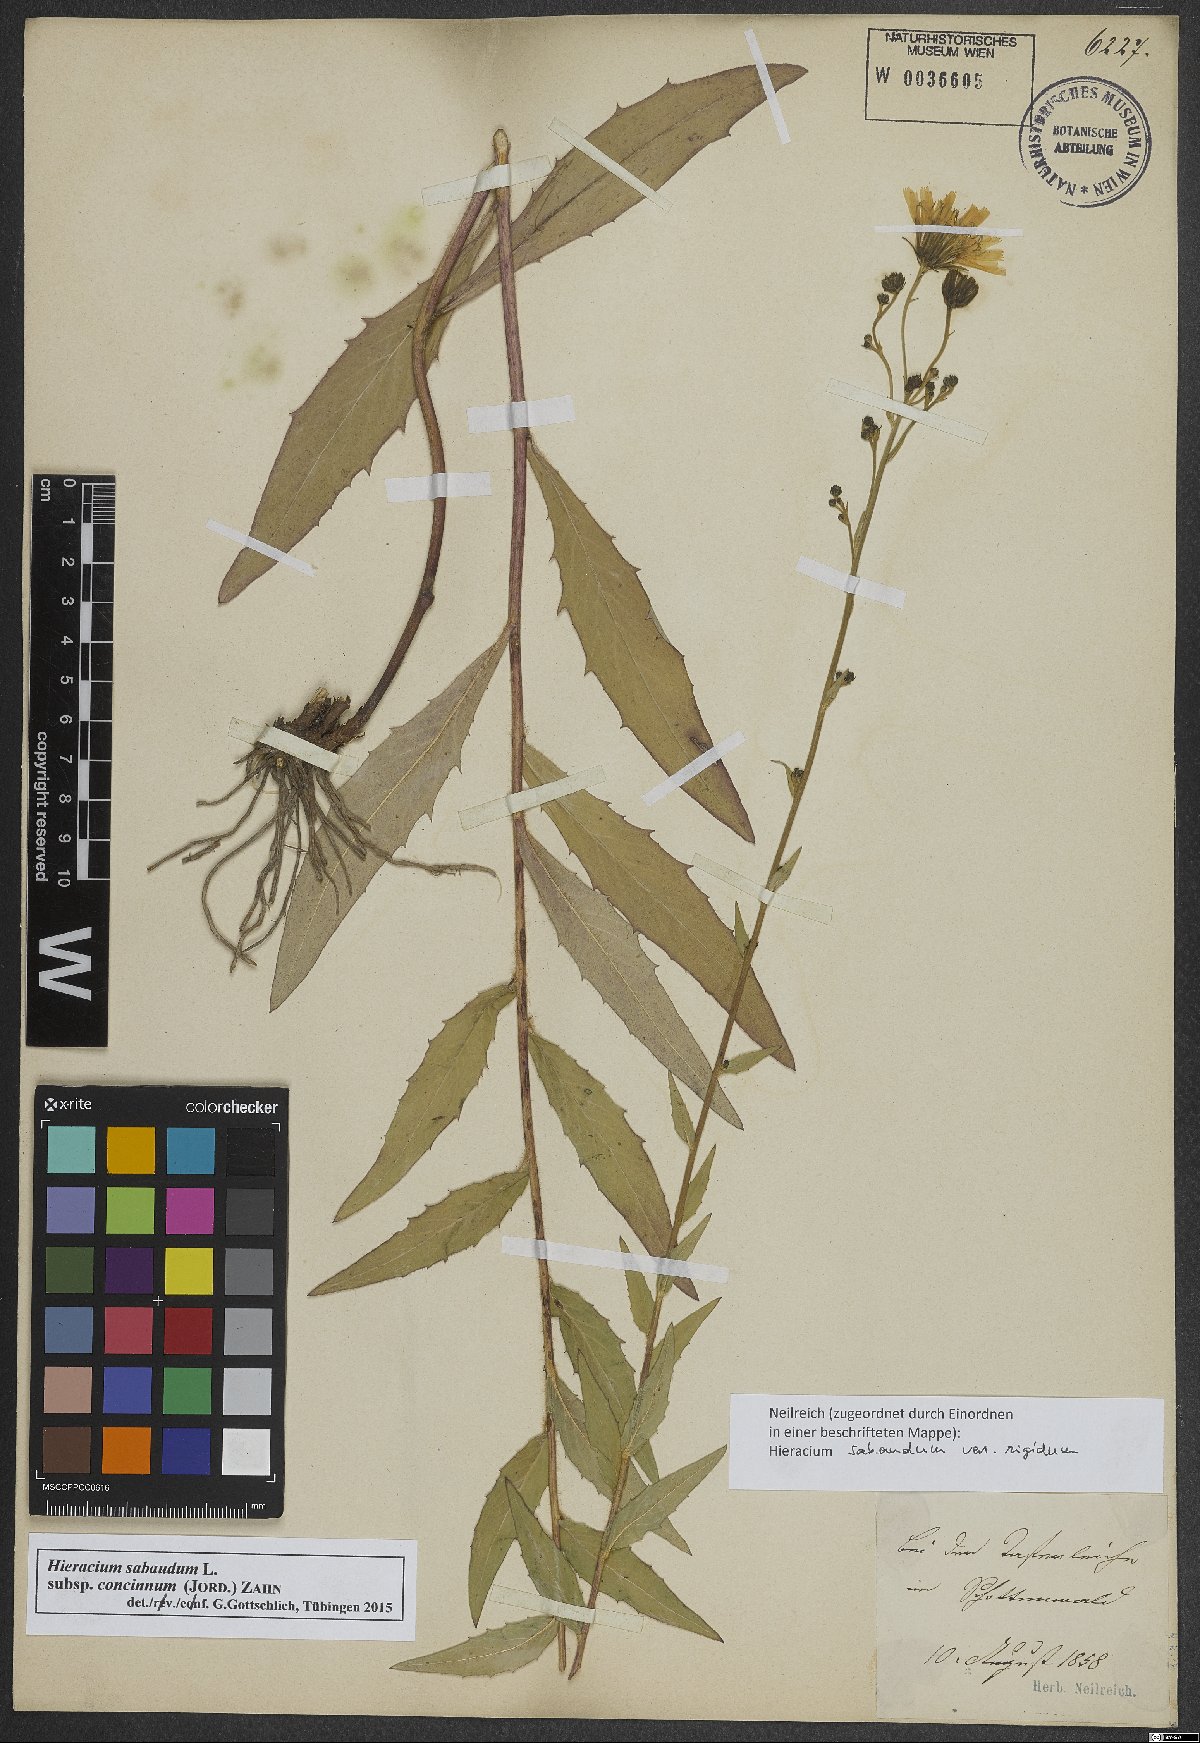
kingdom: Plantae
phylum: Tracheophyta
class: Magnoliopsida
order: Asterales
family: Asteraceae
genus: Hieracium
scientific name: Hieracium sabaudum
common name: New england hawkweed
